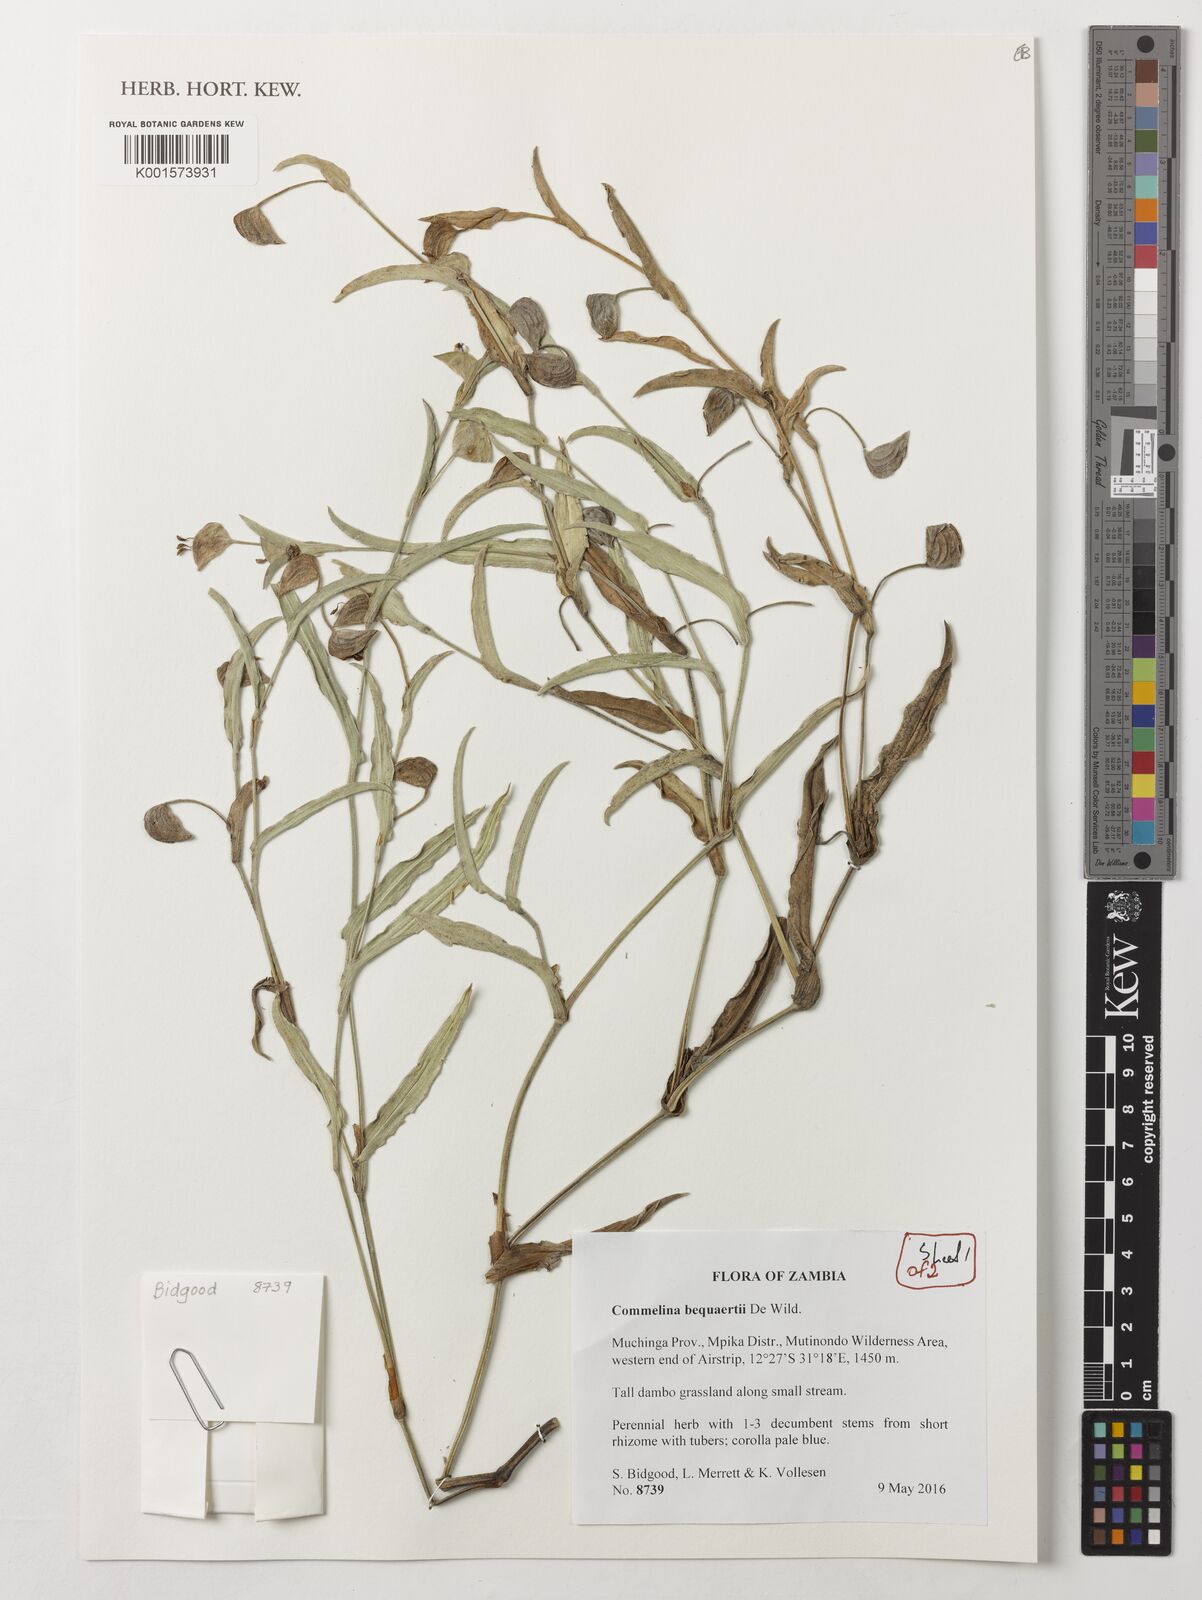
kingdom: Plantae
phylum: Tracheophyta
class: Liliopsida
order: Commelinales
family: Commelinaceae
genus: Commelina
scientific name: Commelina bequaertii
